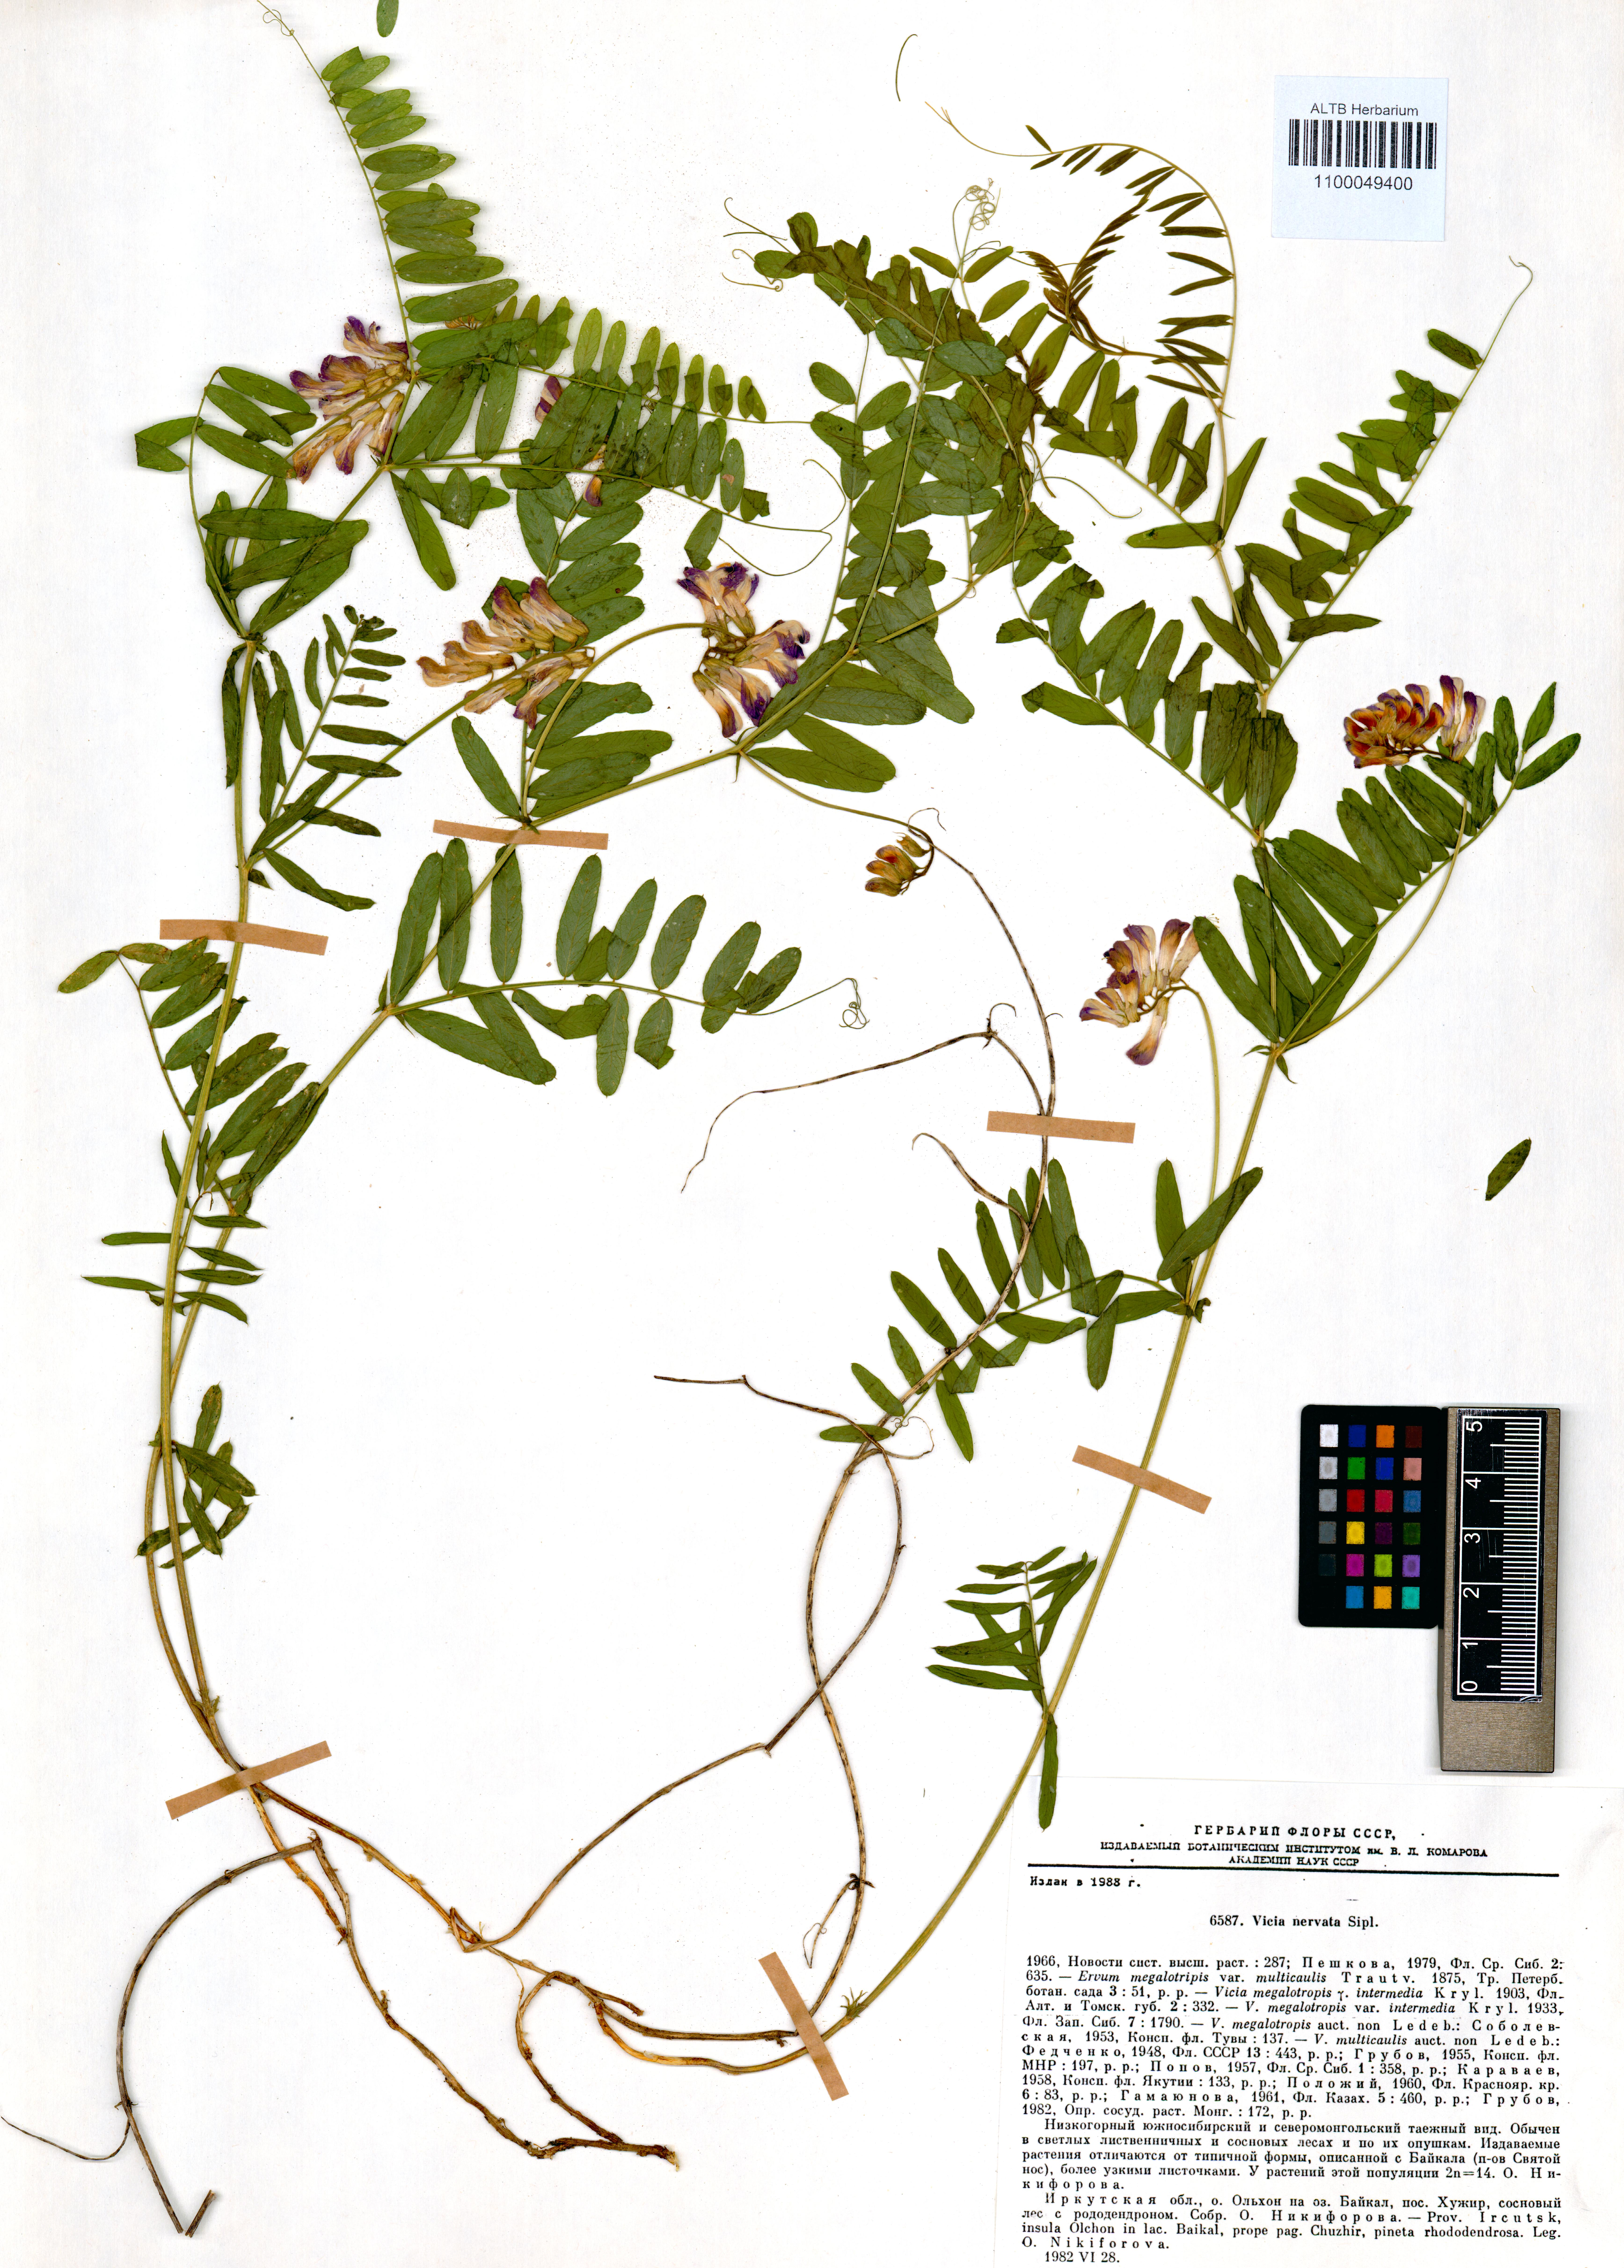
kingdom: Plantae
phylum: Tracheophyta
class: Magnoliopsida
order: Fabales
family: Fabaceae
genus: Vicia
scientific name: Vicia multicaulis
